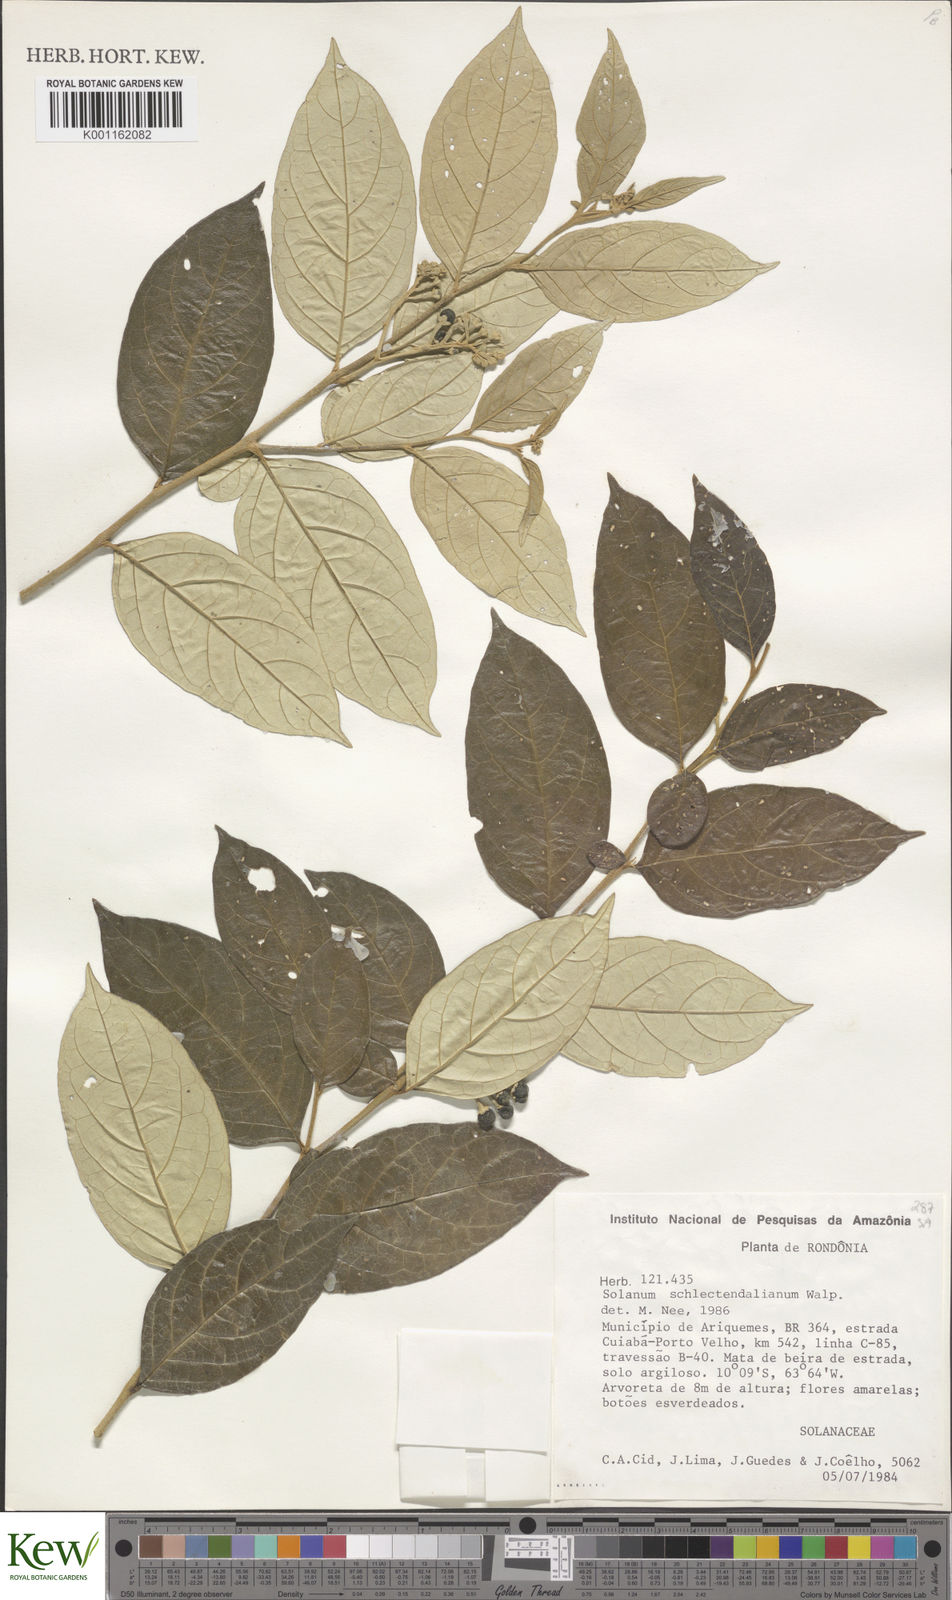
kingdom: Plantae
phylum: Tracheophyta
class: Magnoliopsida
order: Solanales
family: Solanaceae
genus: Solanum
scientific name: Solanum schlechtendalianum
